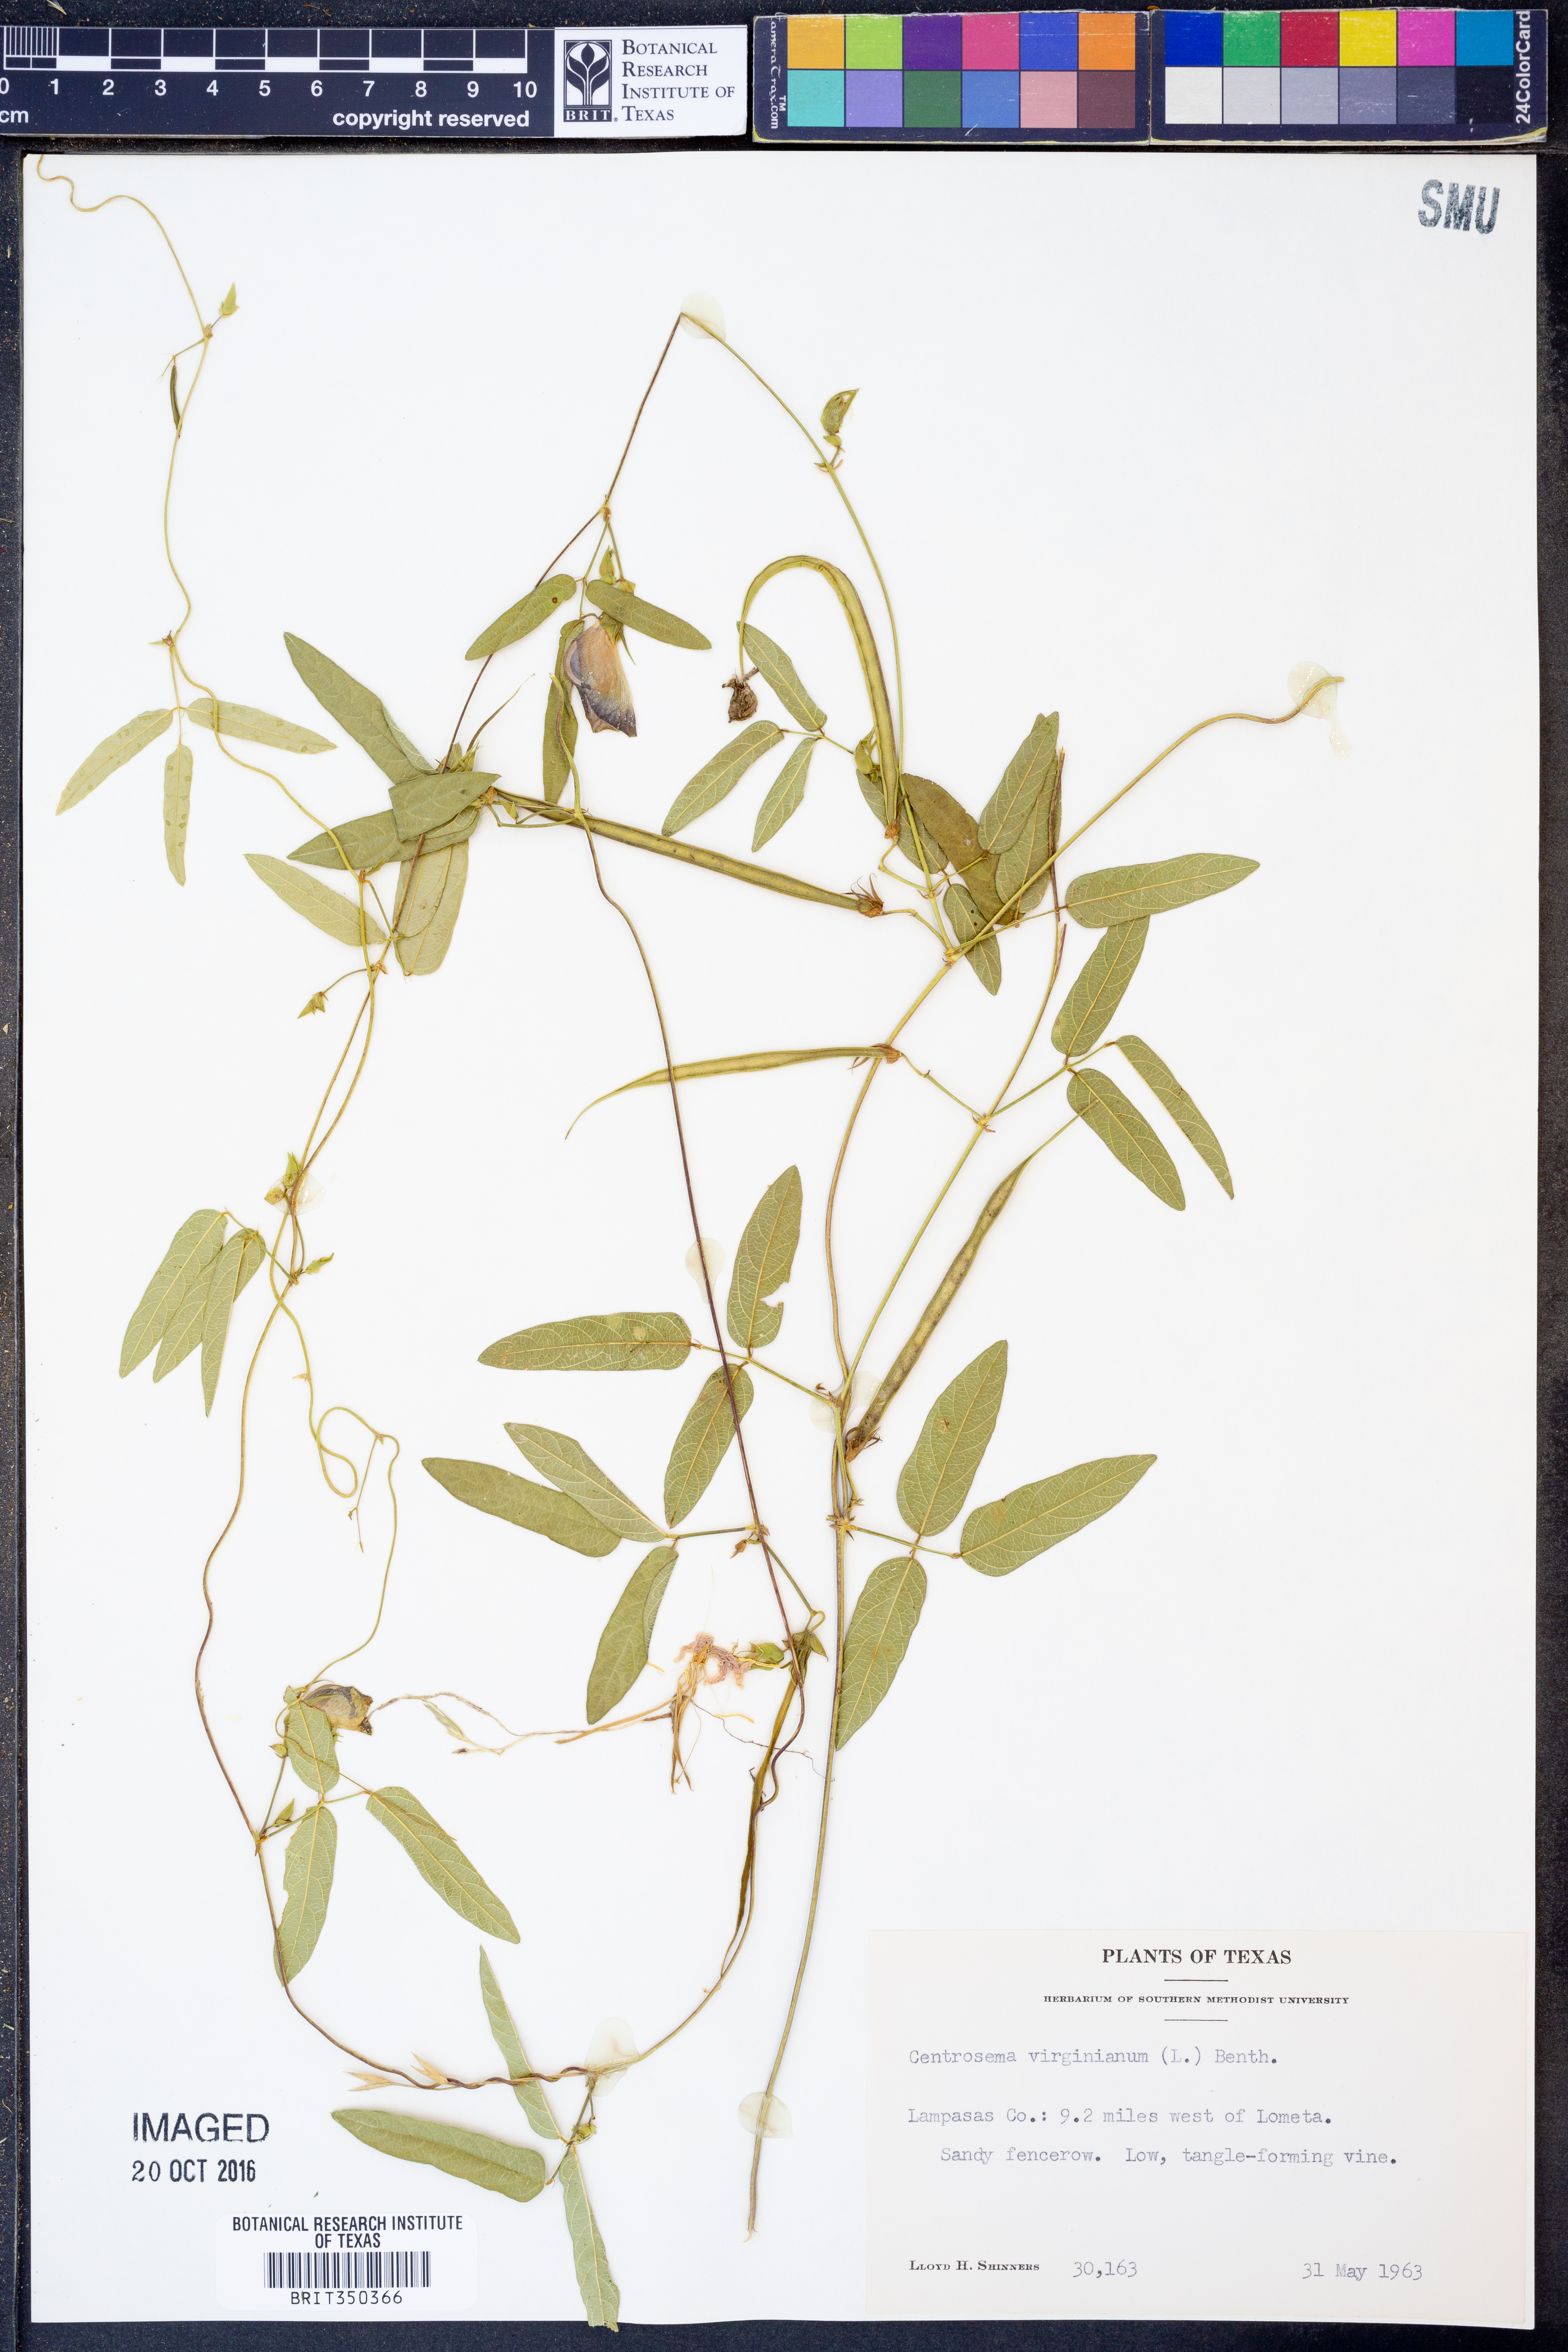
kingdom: Plantae
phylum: Tracheophyta
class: Magnoliopsida
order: Fabales
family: Fabaceae
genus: Centrosema
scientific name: Centrosema virginianum
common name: Butterfly-pea
